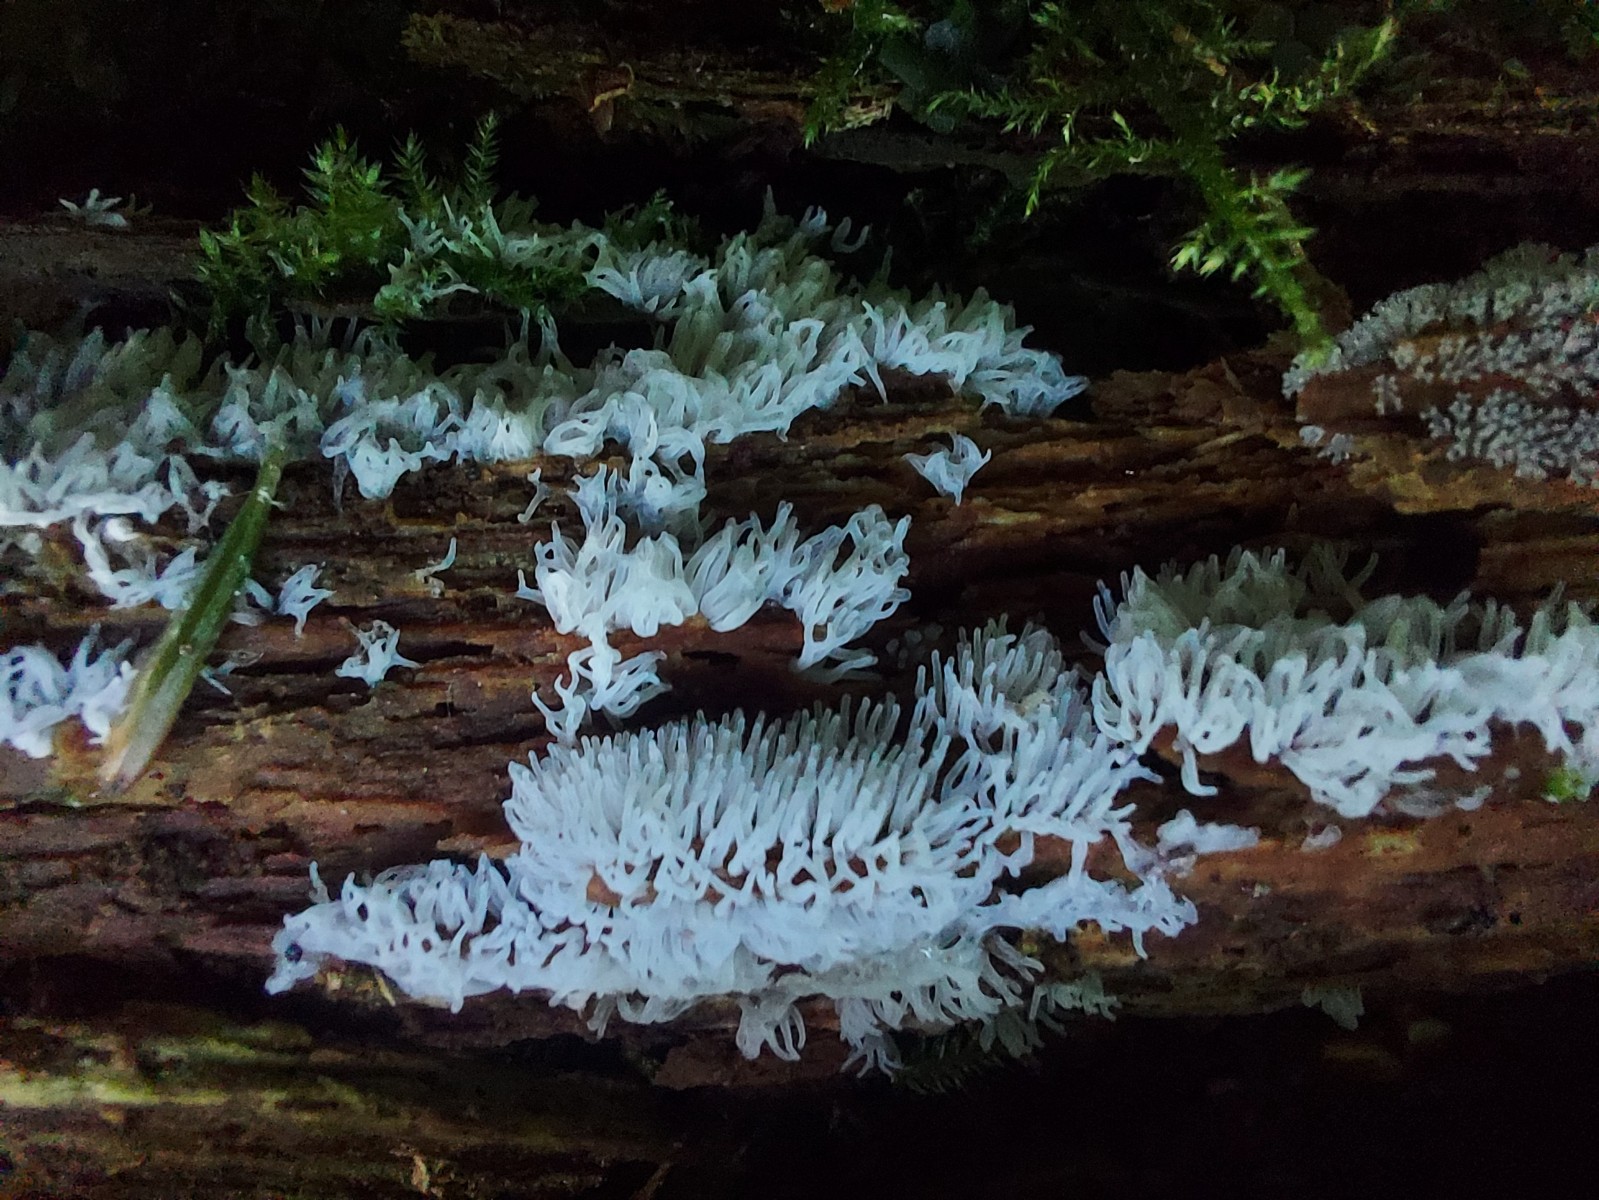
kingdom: Protozoa
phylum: Mycetozoa
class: Protosteliomycetes
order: Ceratiomyxales
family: Ceratiomyxaceae
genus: Ceratiomyxa
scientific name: Ceratiomyxa fruticulosa
